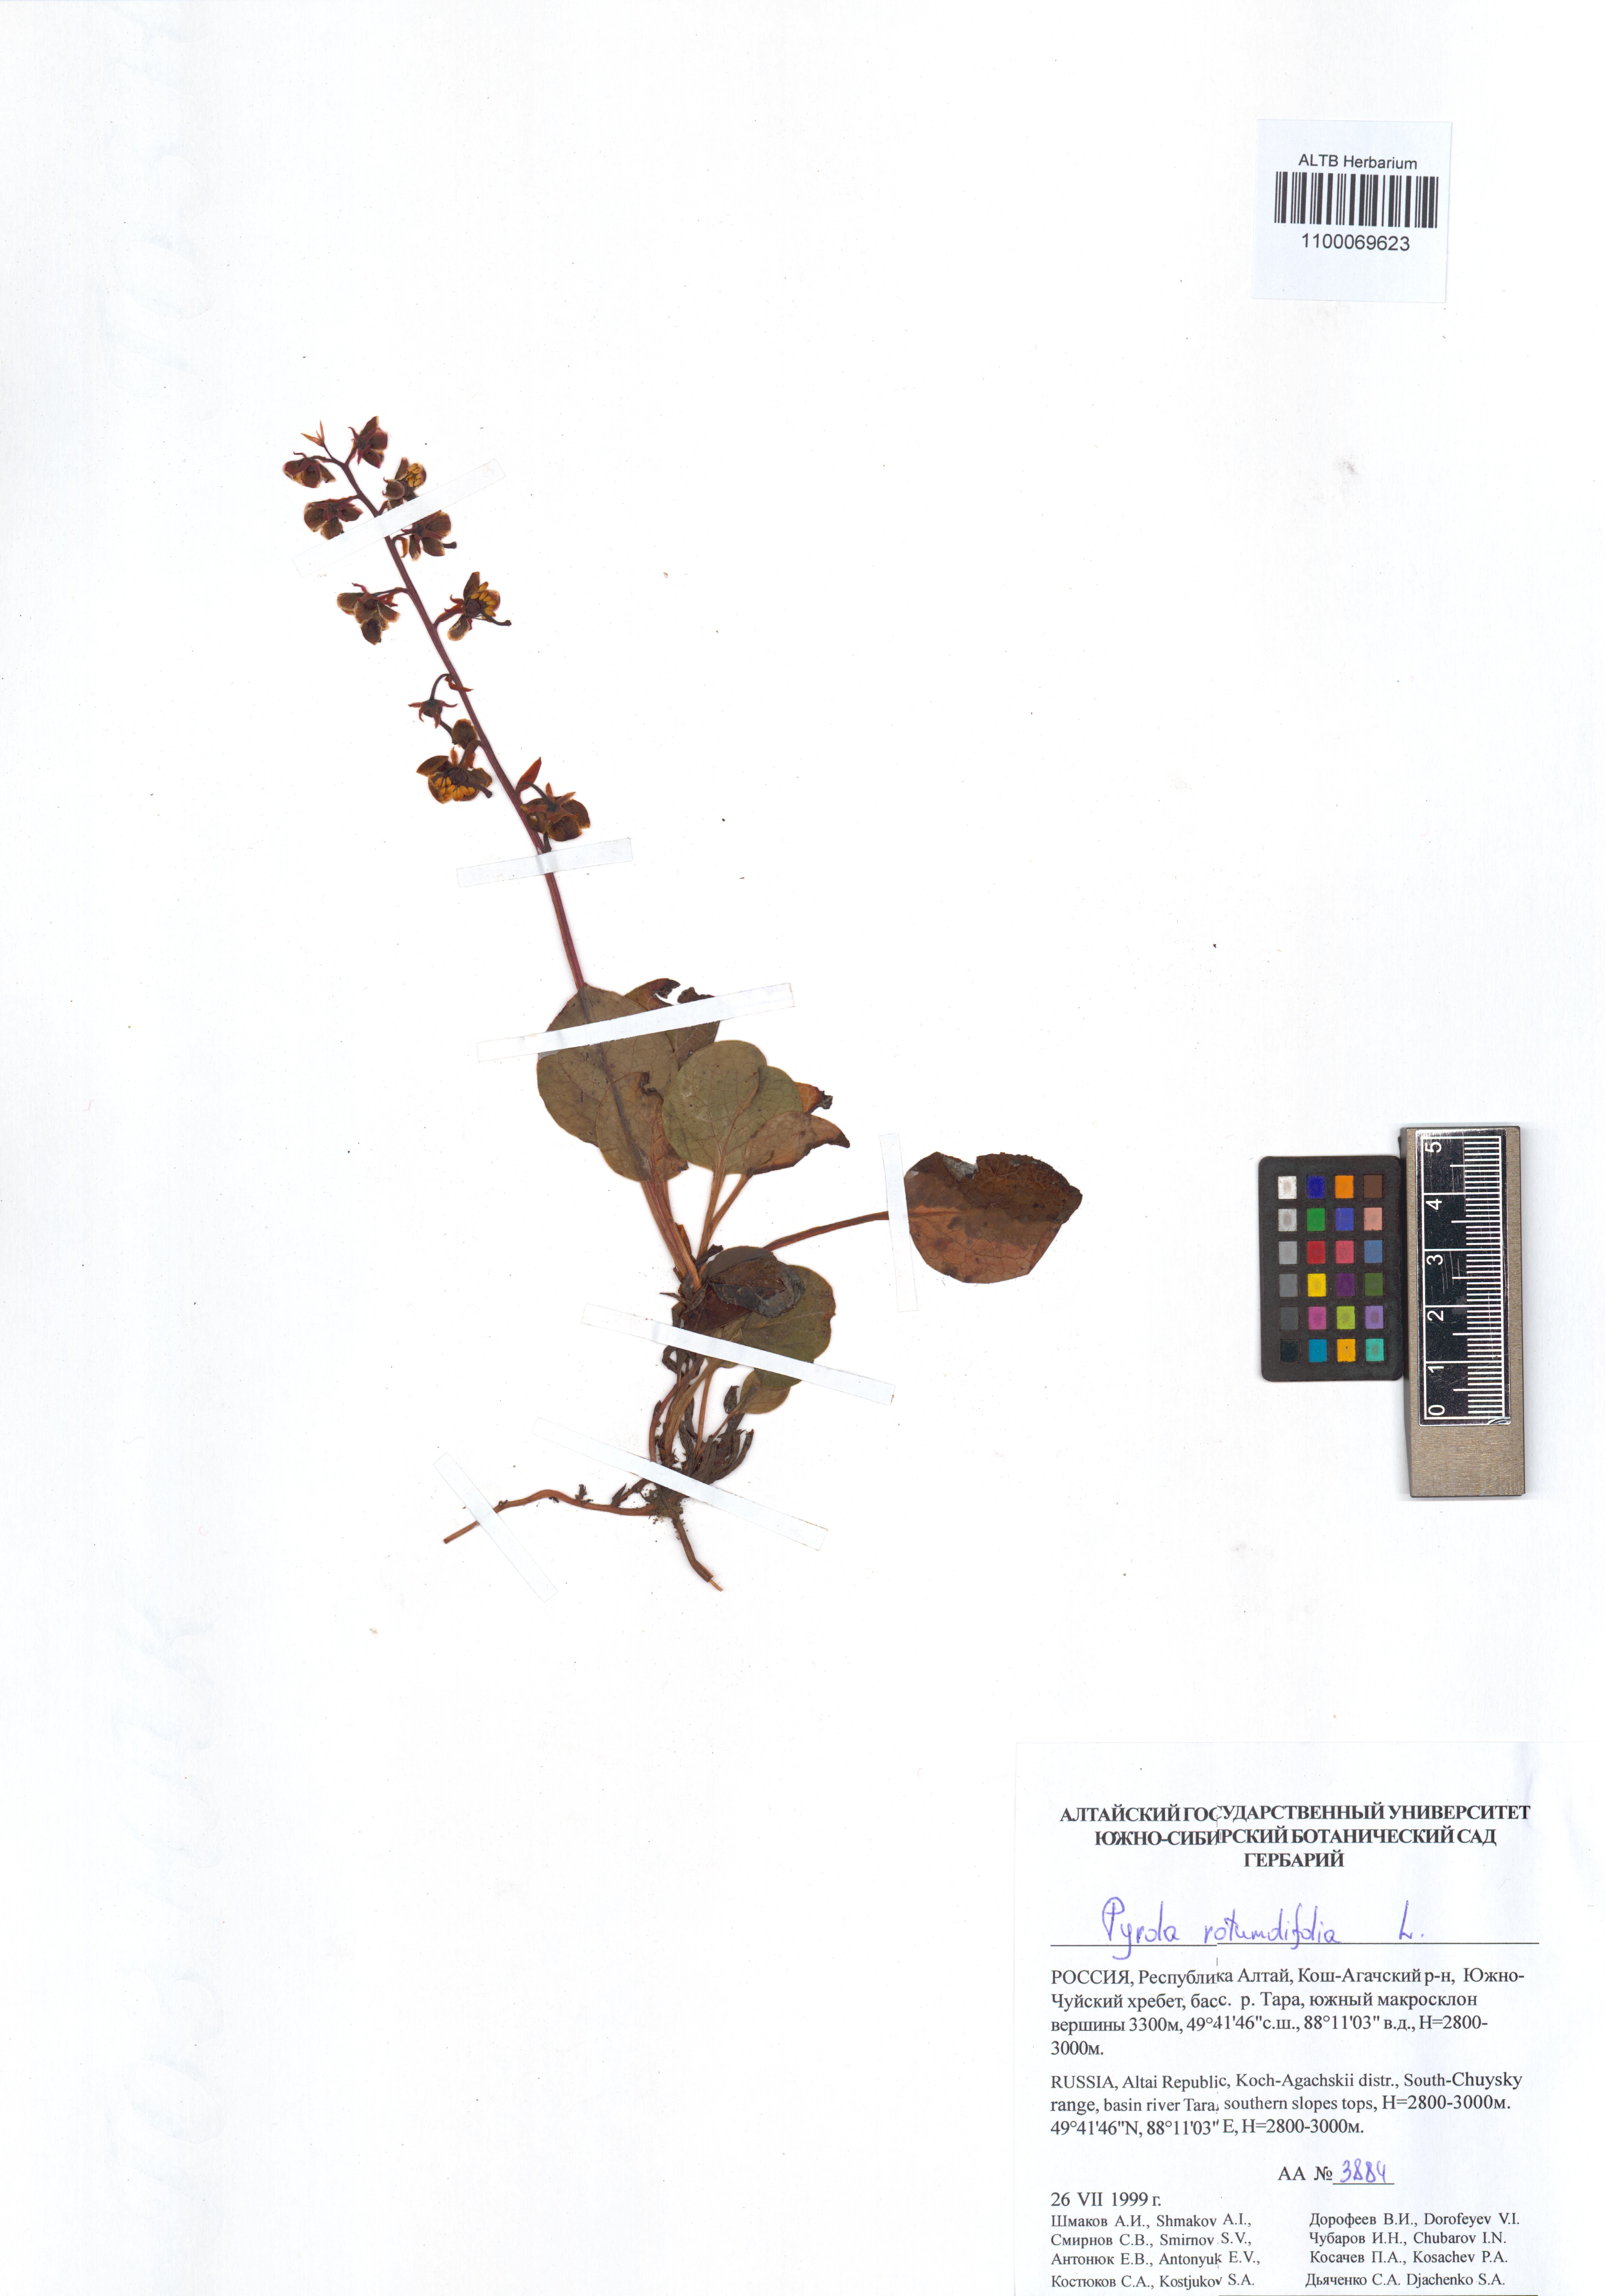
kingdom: Plantae
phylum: Tracheophyta
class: Magnoliopsida
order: Ericales
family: Ericaceae
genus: Pyrola
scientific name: Pyrola rotundifolia
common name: Round-leaved wintergreen
